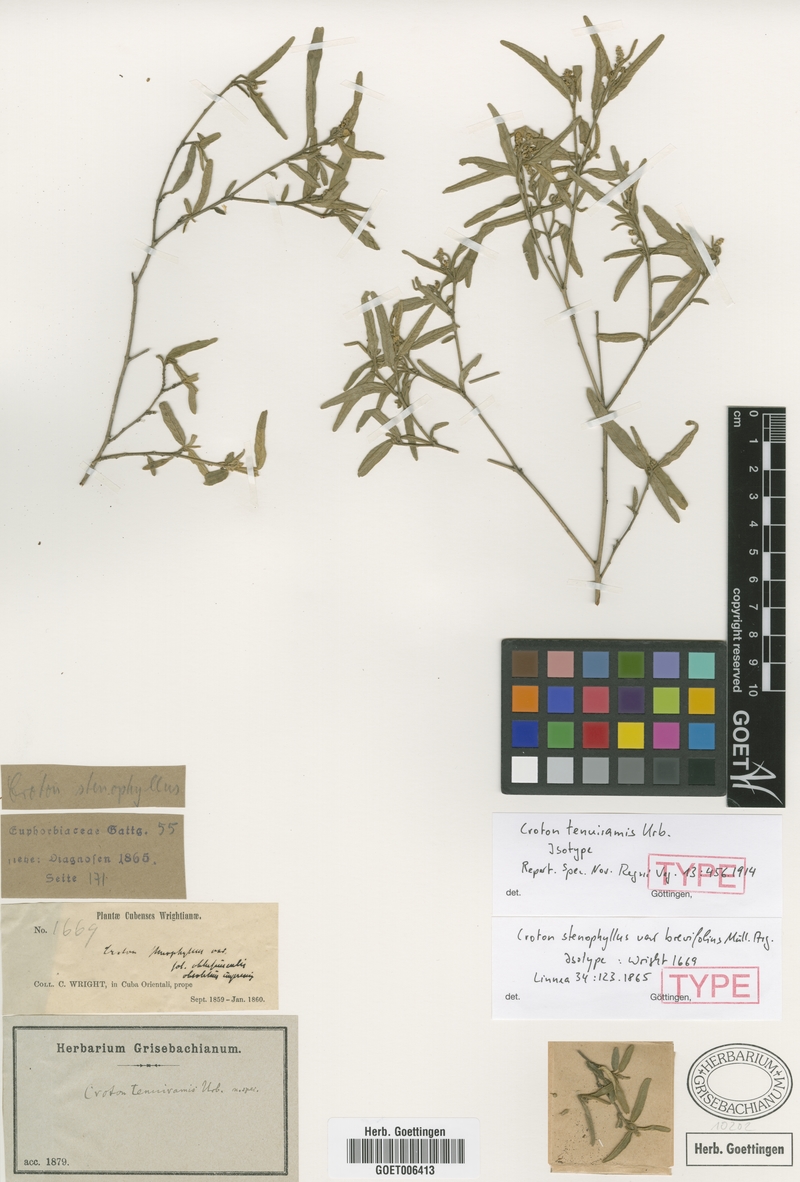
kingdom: Plantae
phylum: Tracheophyta
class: Magnoliopsida
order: Malpighiales
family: Euphorbiaceae
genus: Croton
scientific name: Croton stenophyllus
